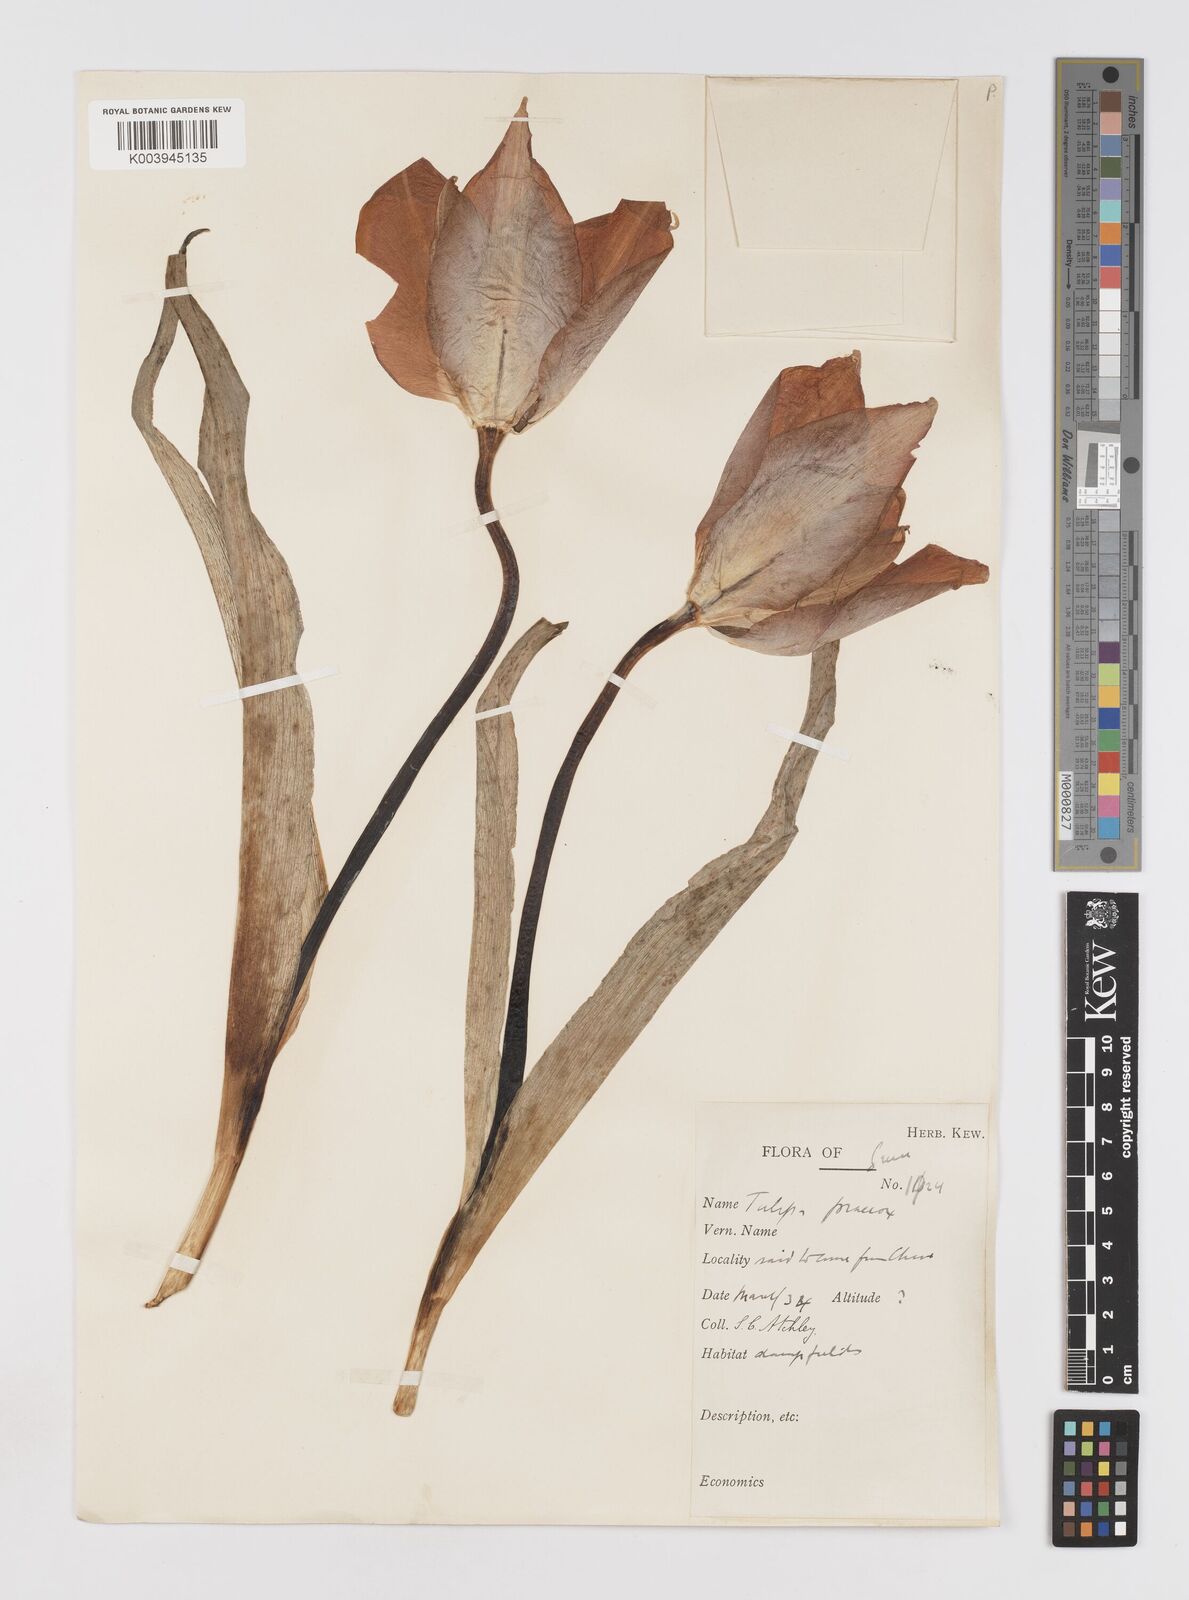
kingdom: Plantae
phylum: Tracheophyta
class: Liliopsida
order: Liliales
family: Liliaceae
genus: Tulipa
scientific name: Tulipa
